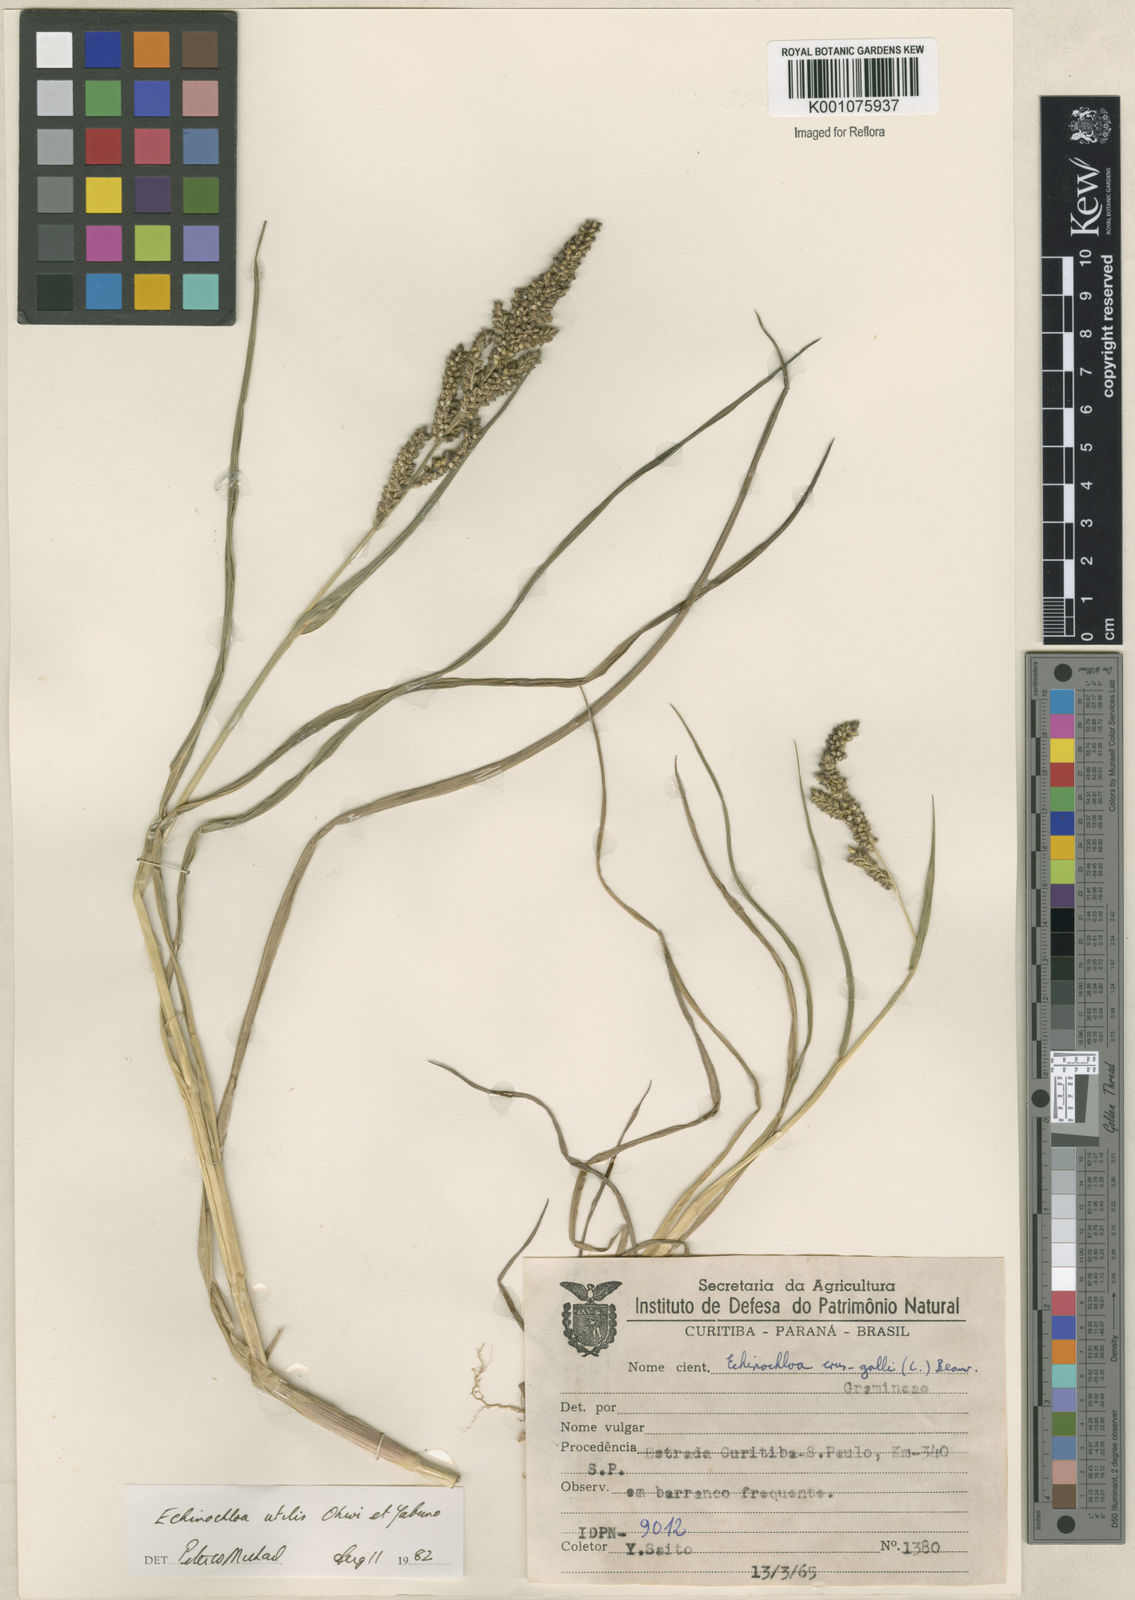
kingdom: Plantae
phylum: Tracheophyta
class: Liliopsida
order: Poales
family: Poaceae
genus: Echinochloa
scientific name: Echinochloa crus-galli
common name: Cockspur
